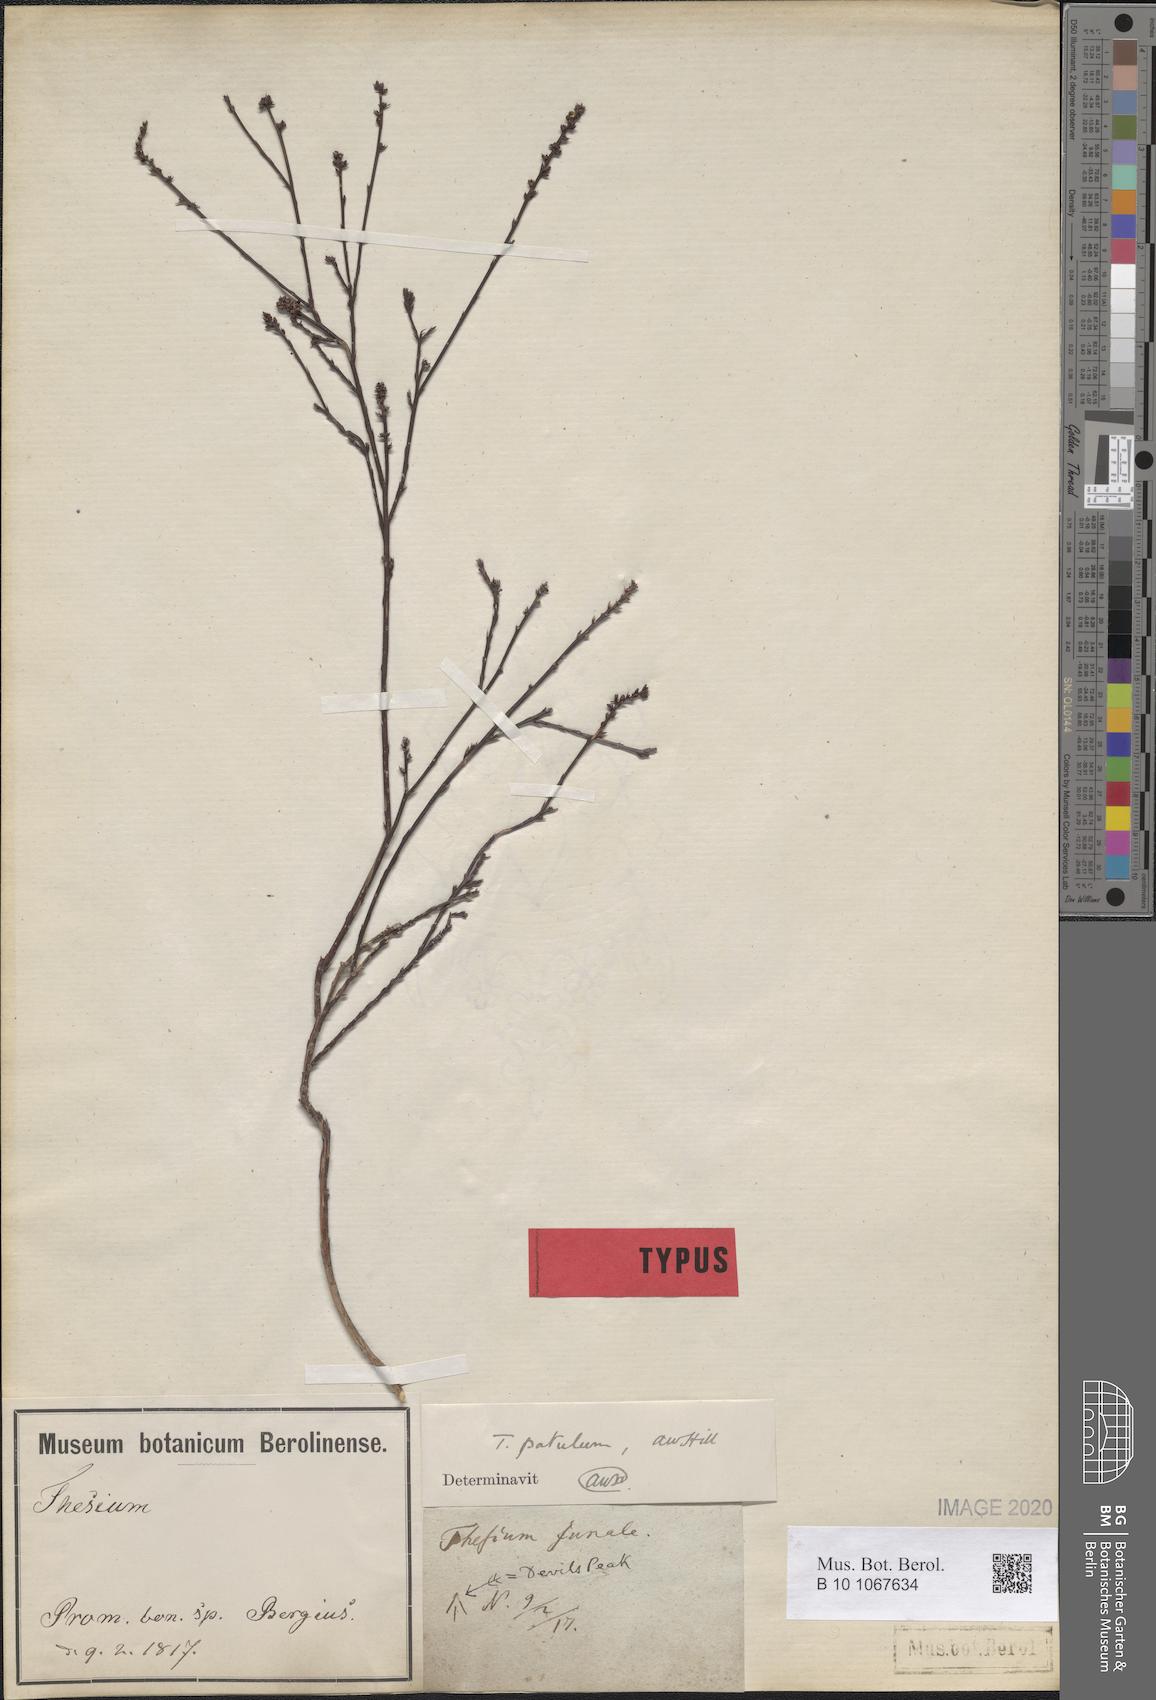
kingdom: Plantae
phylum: Tracheophyta
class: Magnoliopsida
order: Santalales
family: Thesiaceae
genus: Thesium
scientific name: Thesium patulum
